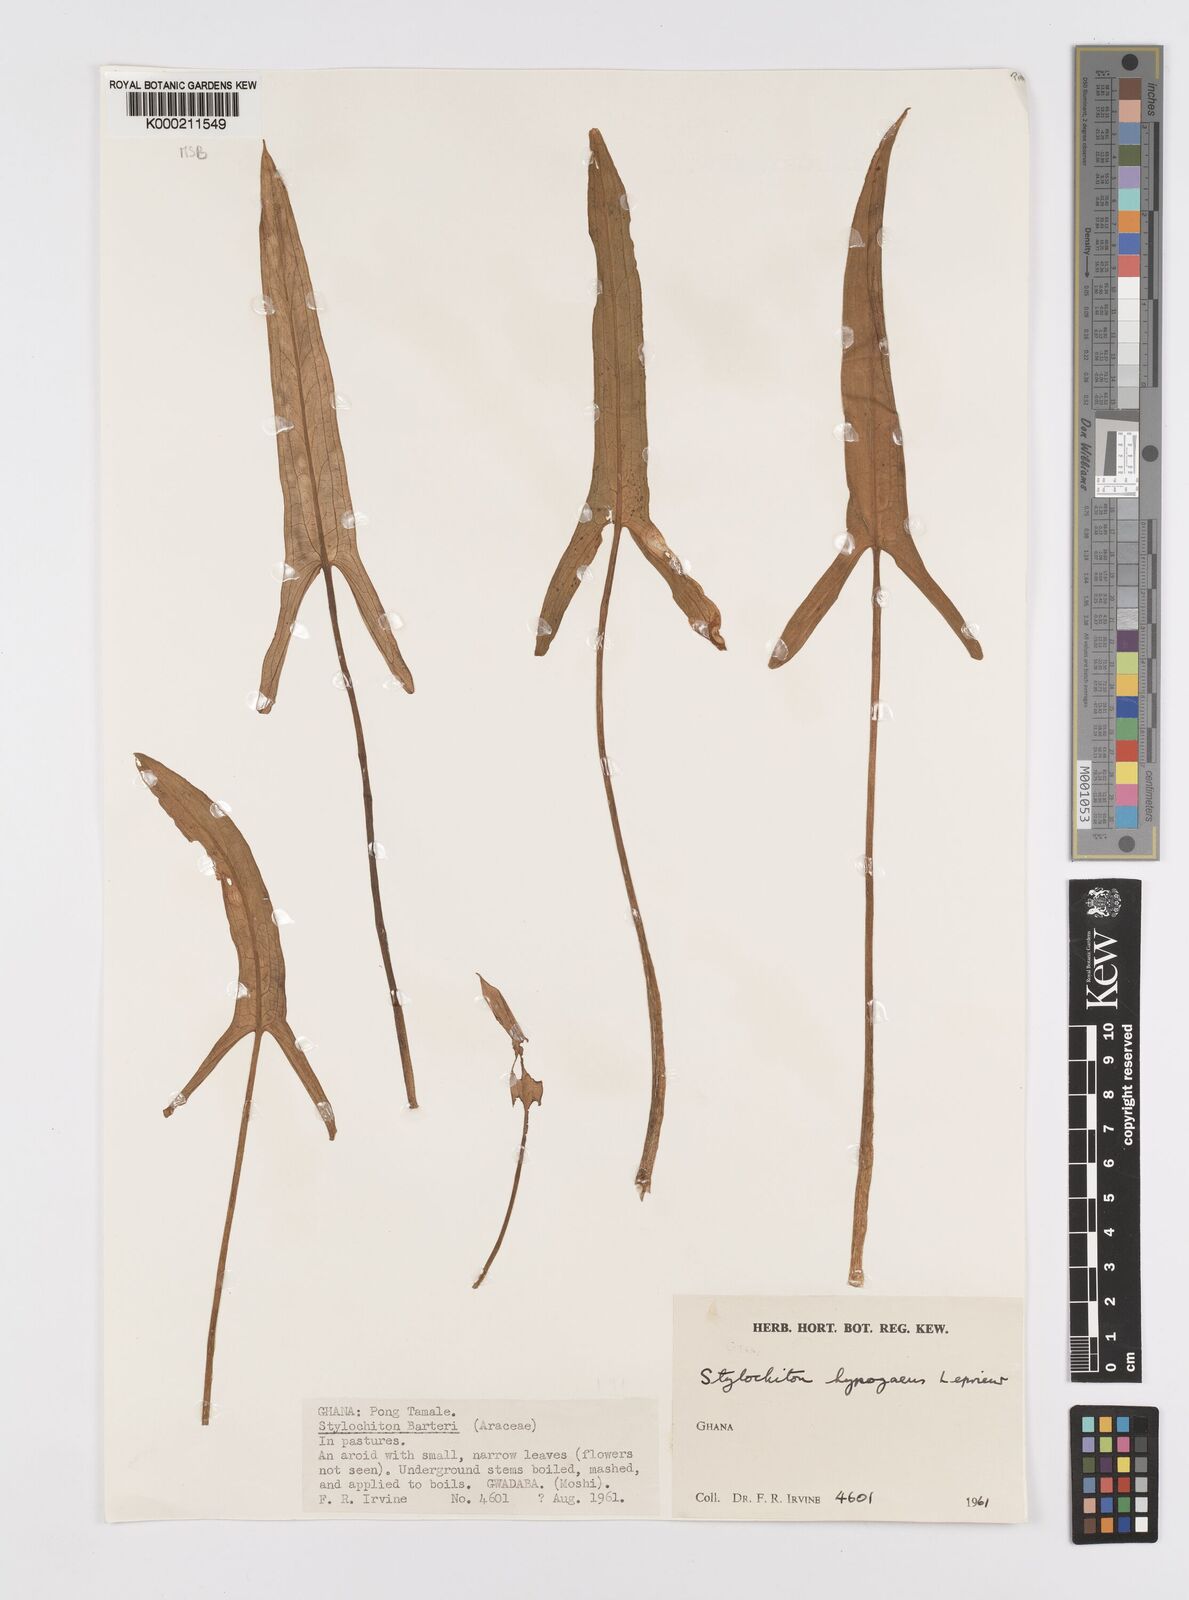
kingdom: Plantae
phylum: Tracheophyta
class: Liliopsida
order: Alismatales
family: Araceae
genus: Stylochaeton
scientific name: Stylochaeton
